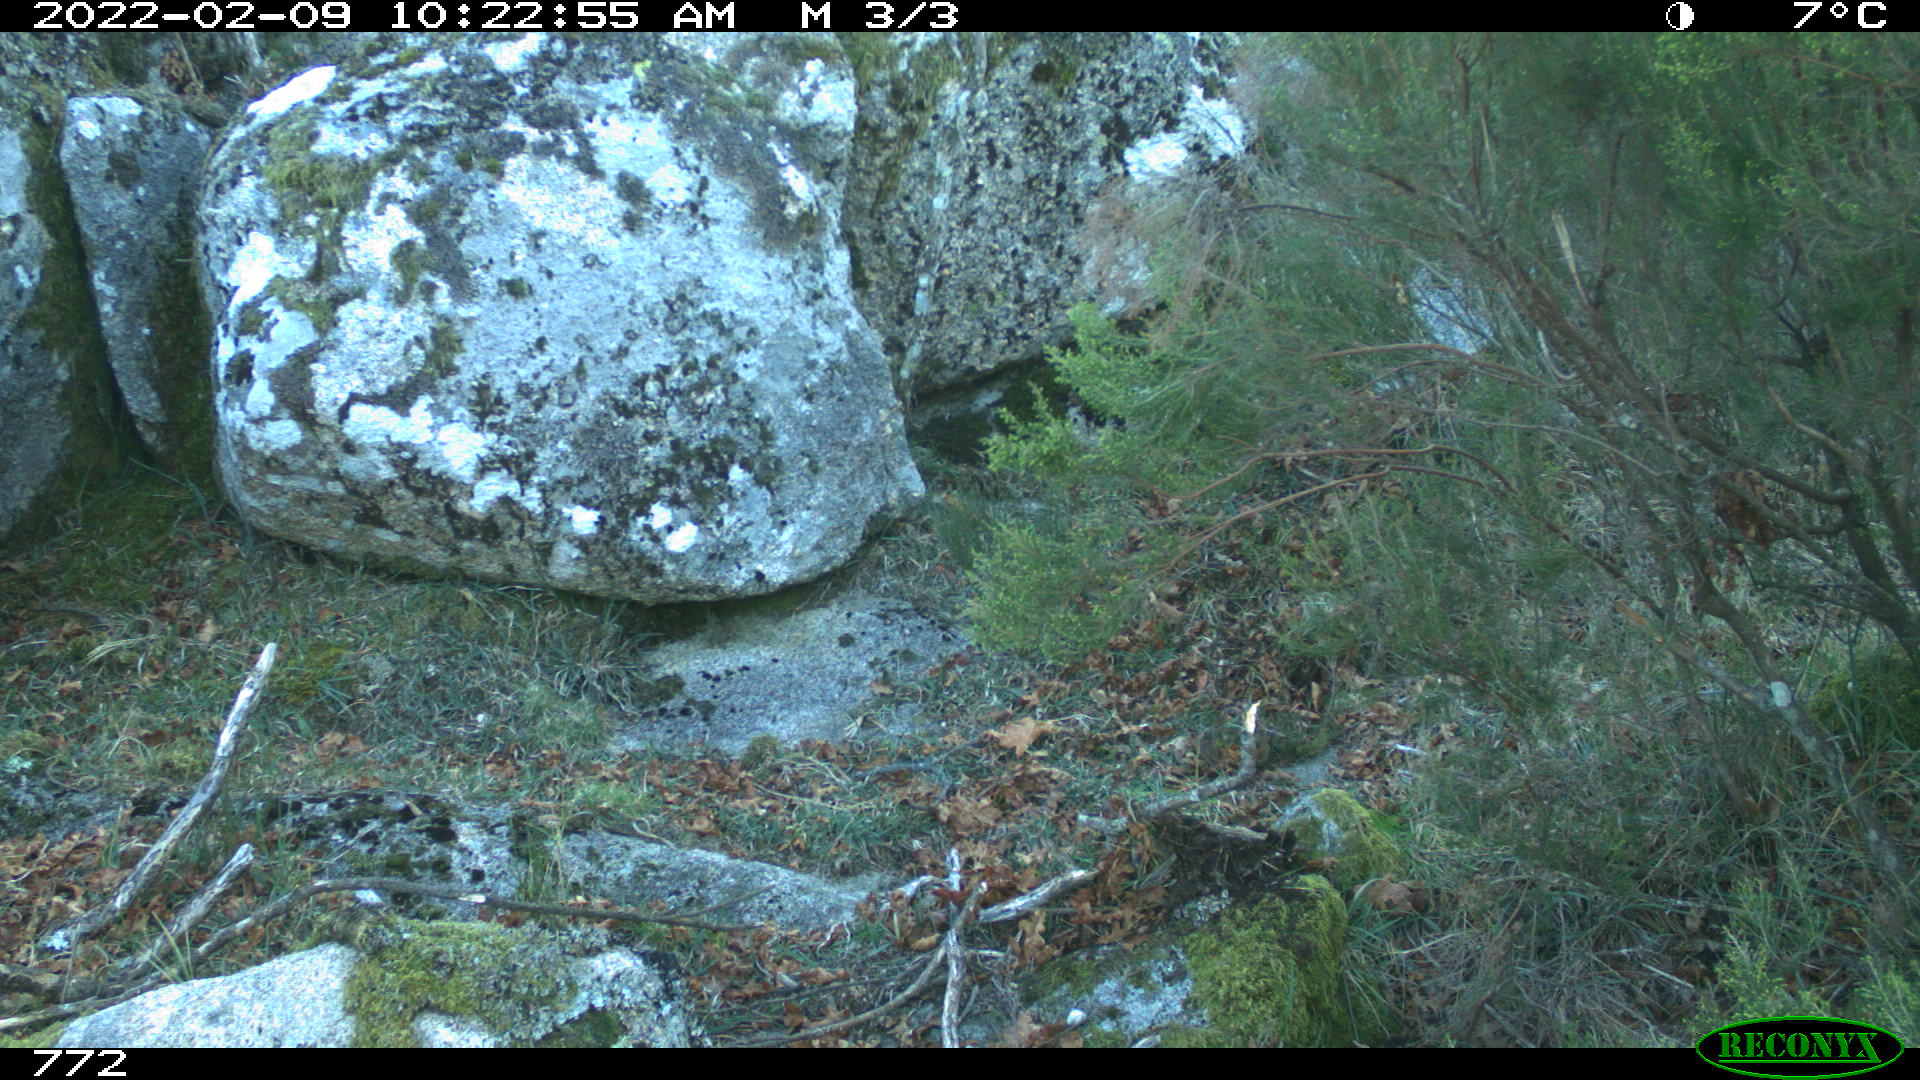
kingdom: Animalia
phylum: Chordata
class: Mammalia
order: Artiodactyla
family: Suidae
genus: Sus
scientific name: Sus scrofa
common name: Wild boar
